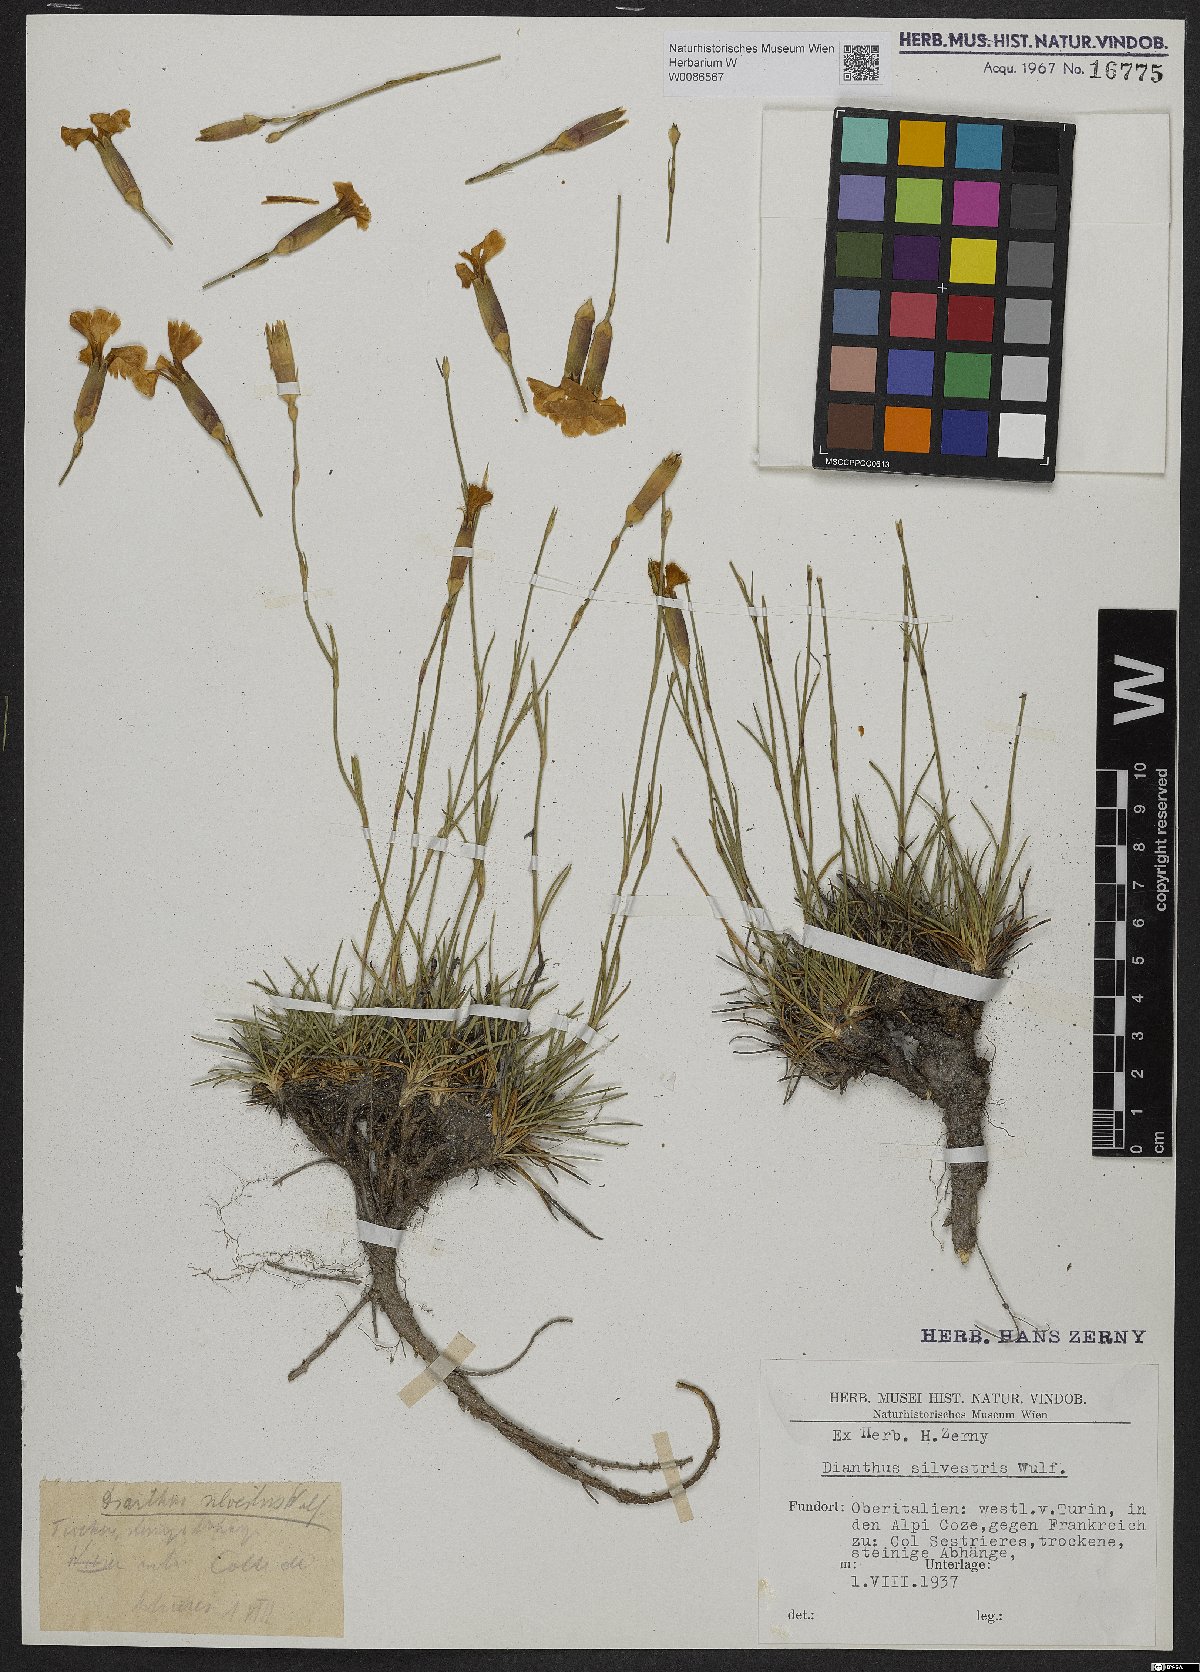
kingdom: Plantae
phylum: Tracheophyta
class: Magnoliopsida
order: Caryophyllales
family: Caryophyllaceae
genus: Dianthus
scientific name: Dianthus sylvestris
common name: Wood pink
